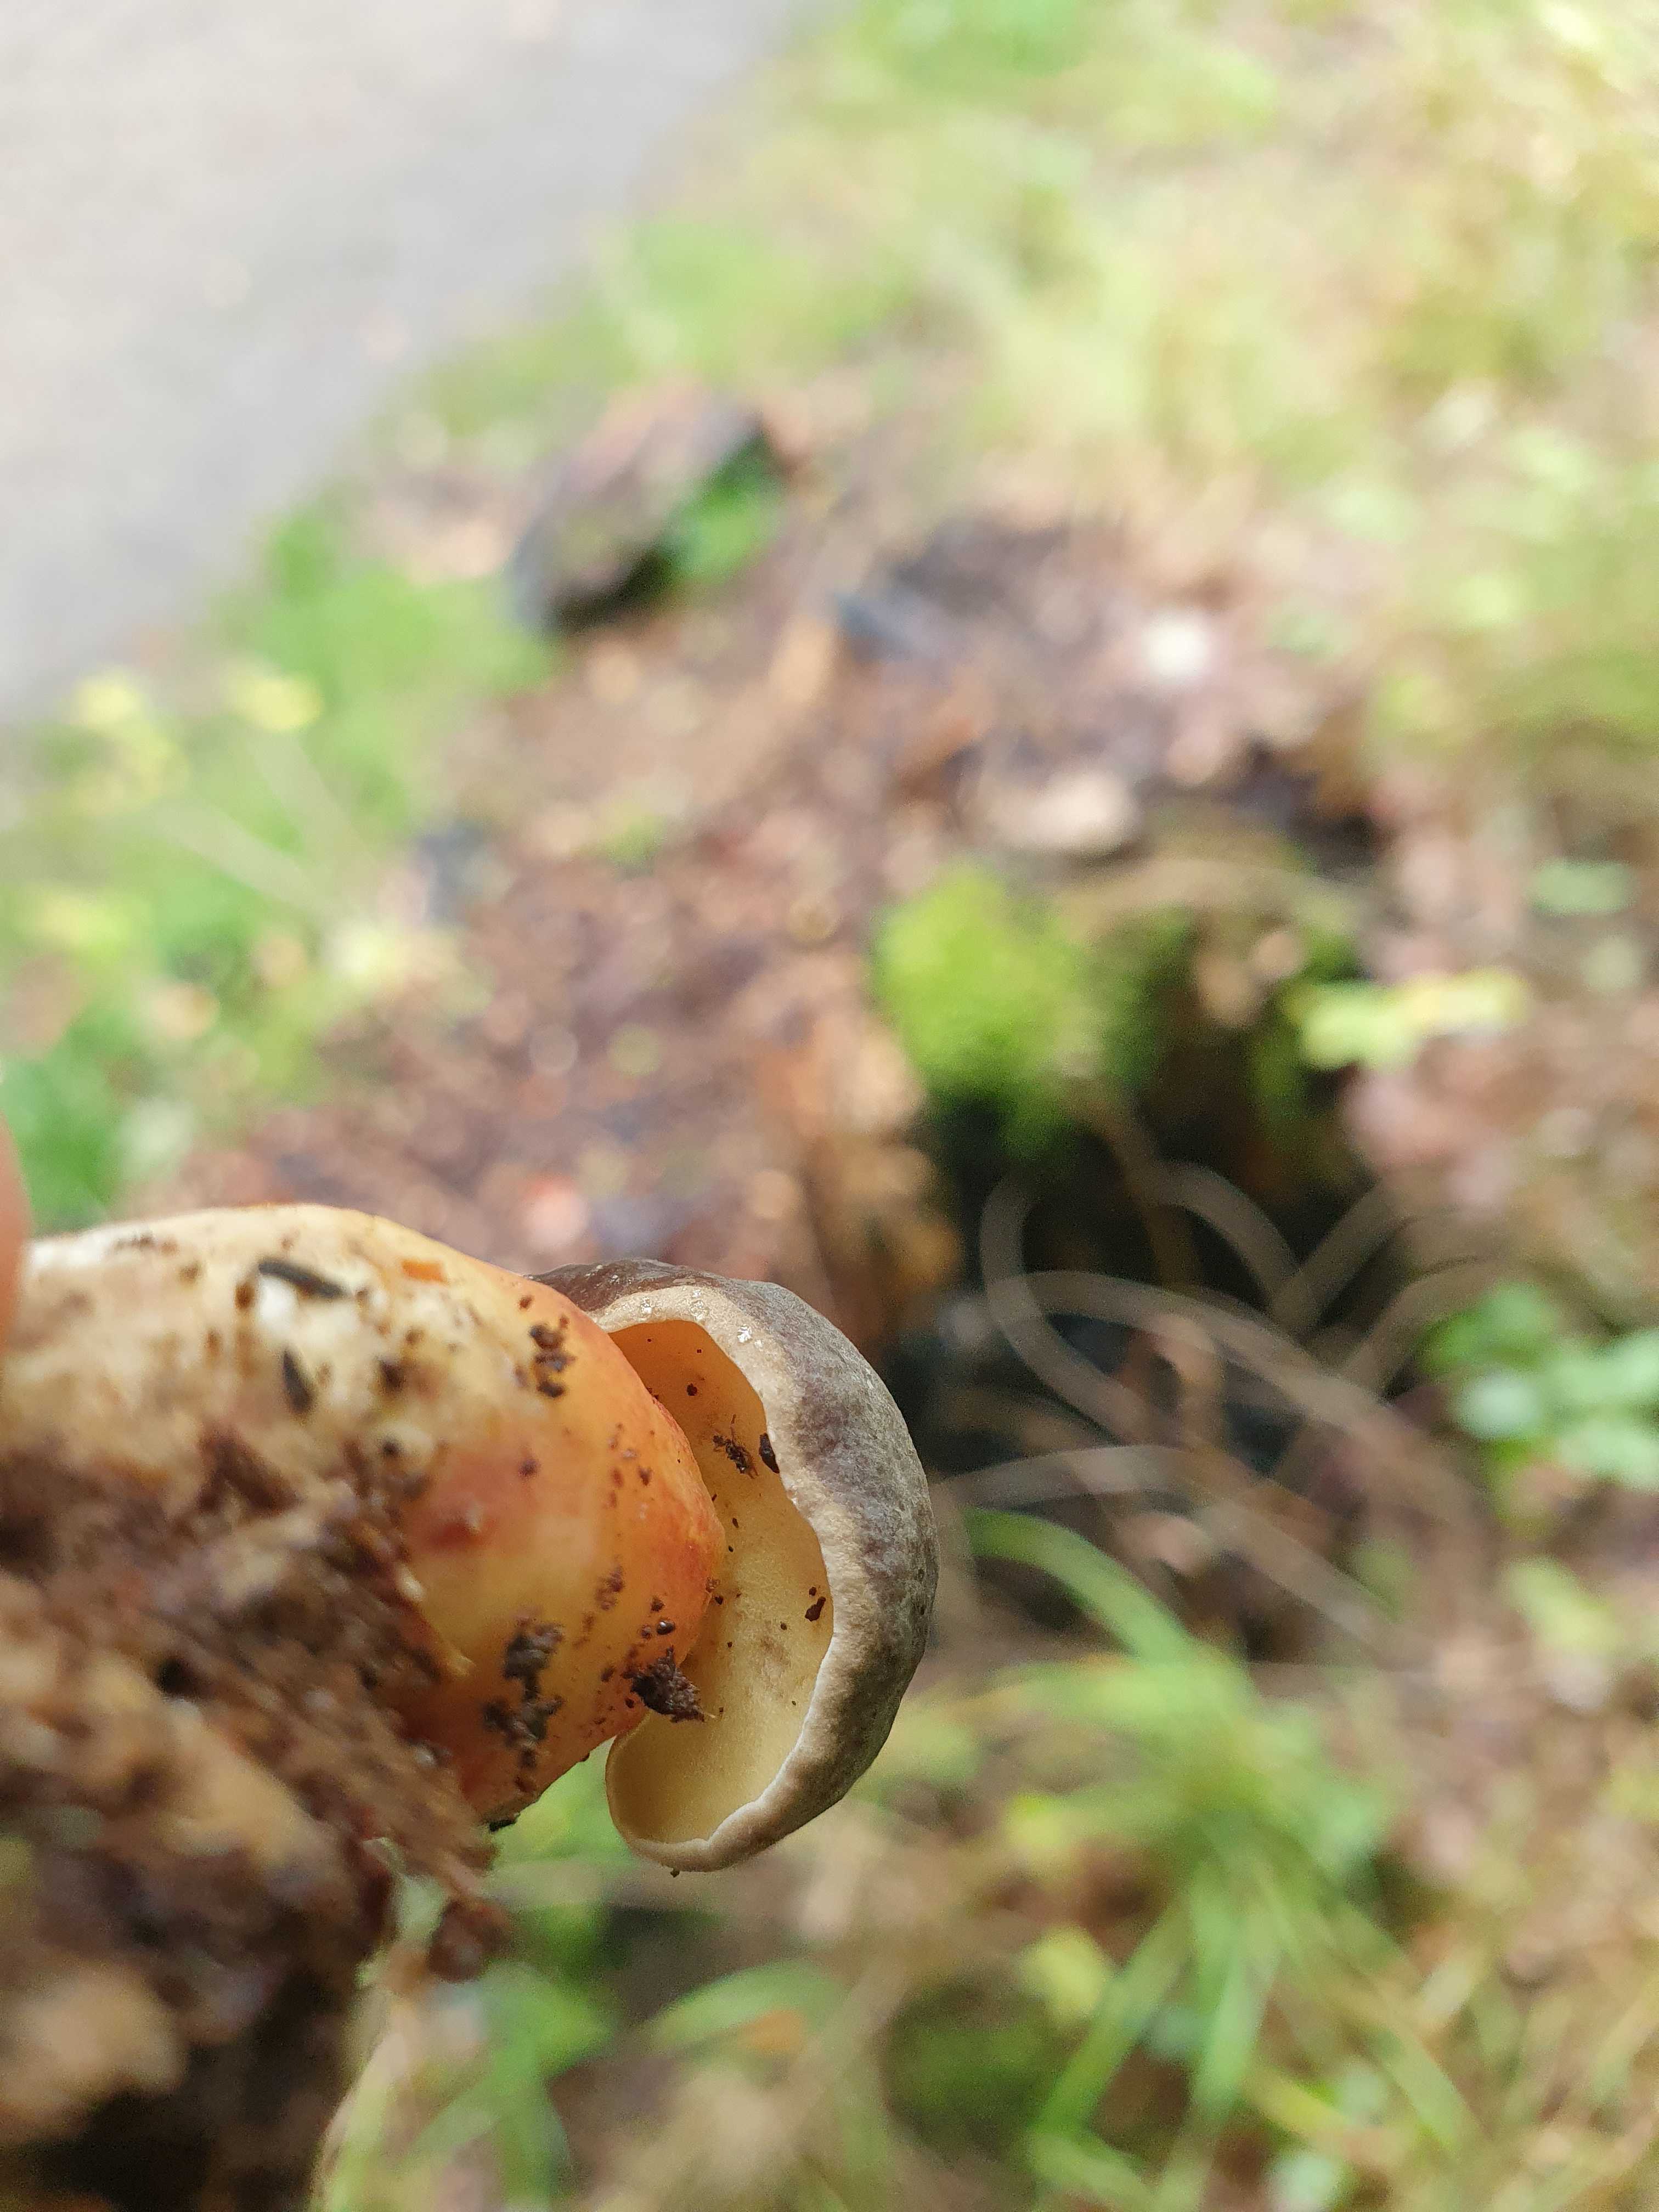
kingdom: Fungi
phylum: Basidiomycota
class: Agaricomycetes
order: Boletales
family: Boletaceae
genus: Xerocomellus
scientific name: Xerocomellus
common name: dværgrørhat
